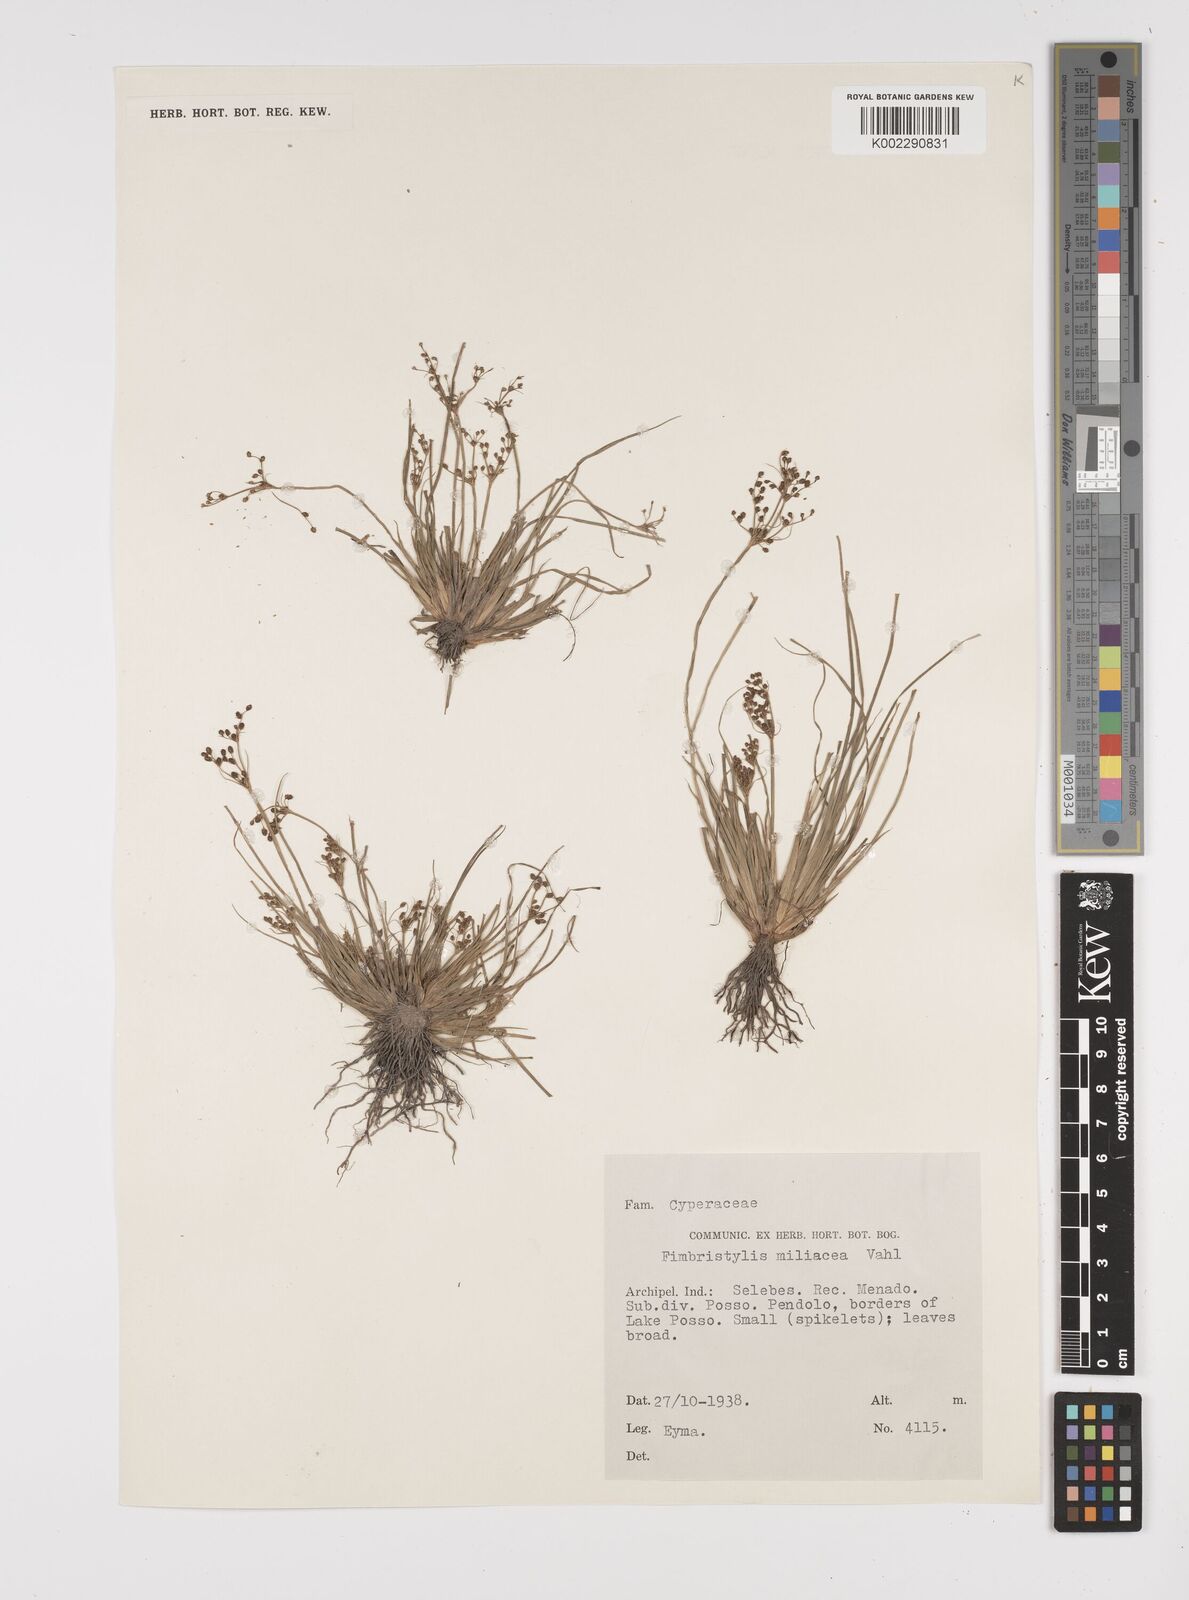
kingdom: Plantae
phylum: Tracheophyta
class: Liliopsida
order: Poales
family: Cyperaceae
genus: Fimbristylis
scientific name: Fimbristylis littoralis
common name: Fimbry
